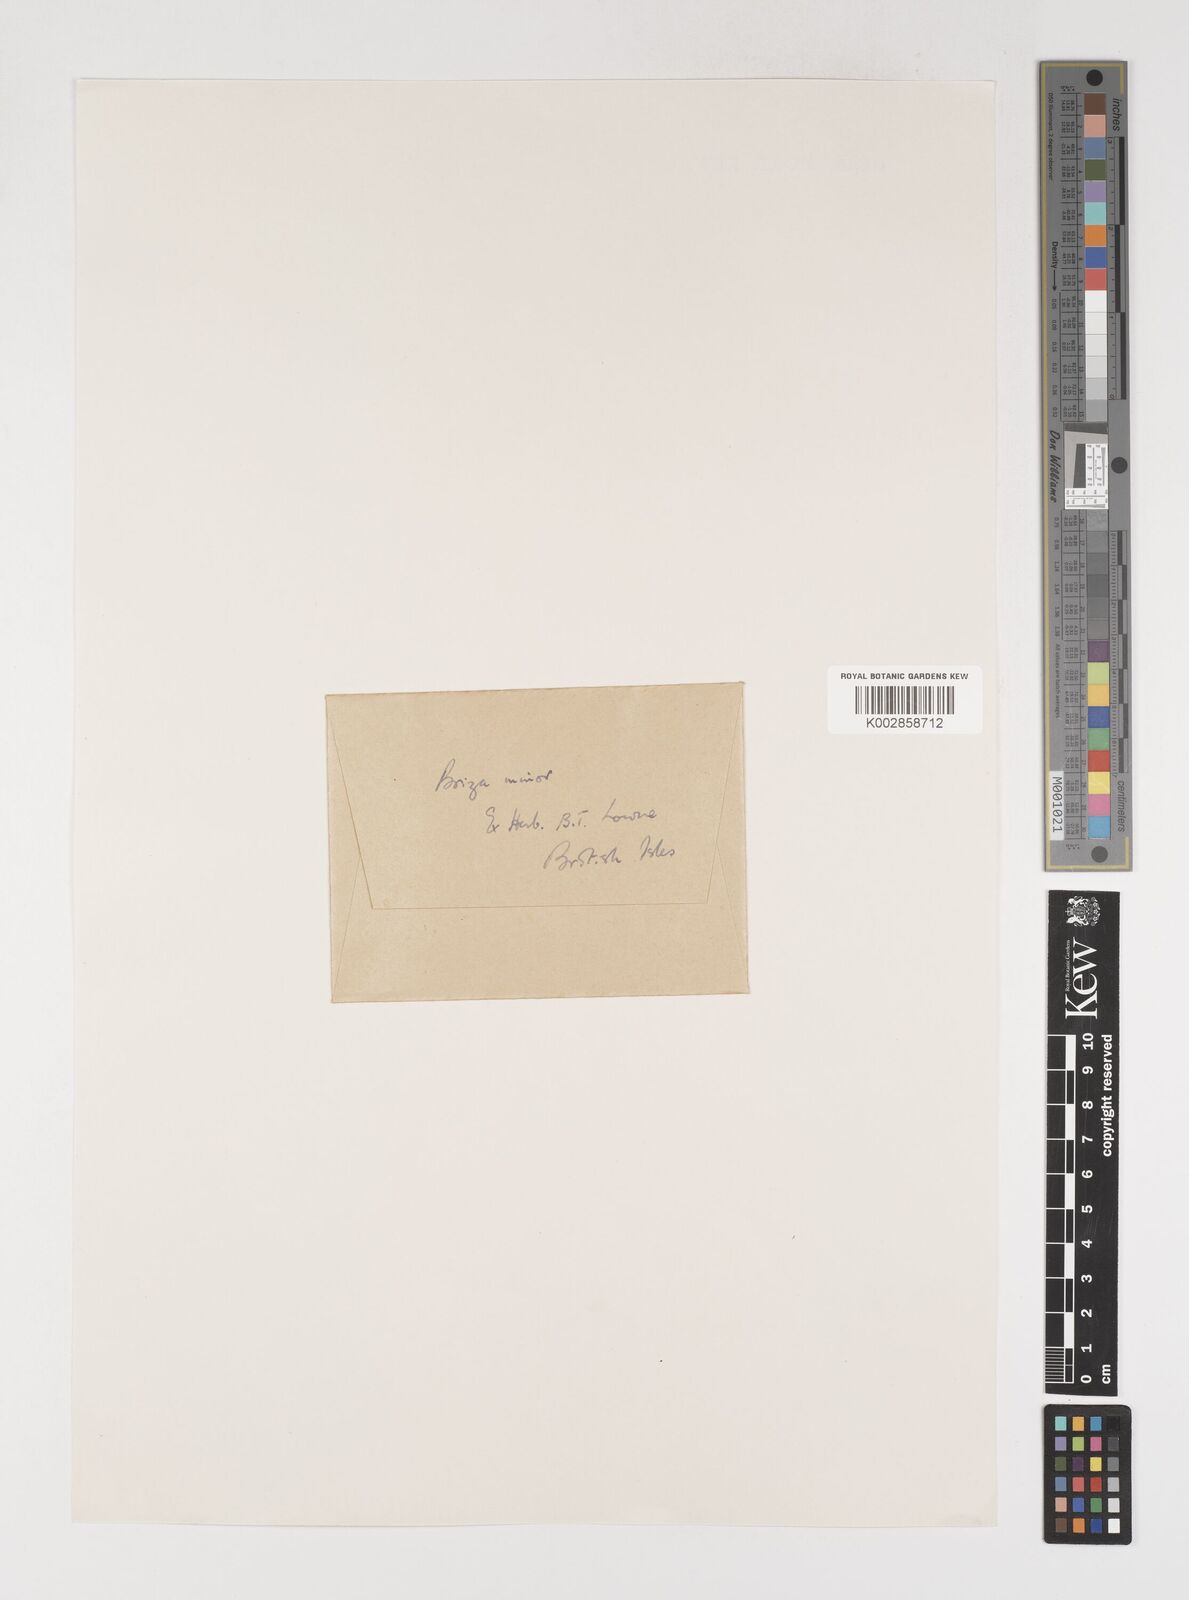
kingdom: Plantae
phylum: Tracheophyta
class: Liliopsida
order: Poales
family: Poaceae
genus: Briza
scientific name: Briza minor
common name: Lesser quaking-grass
